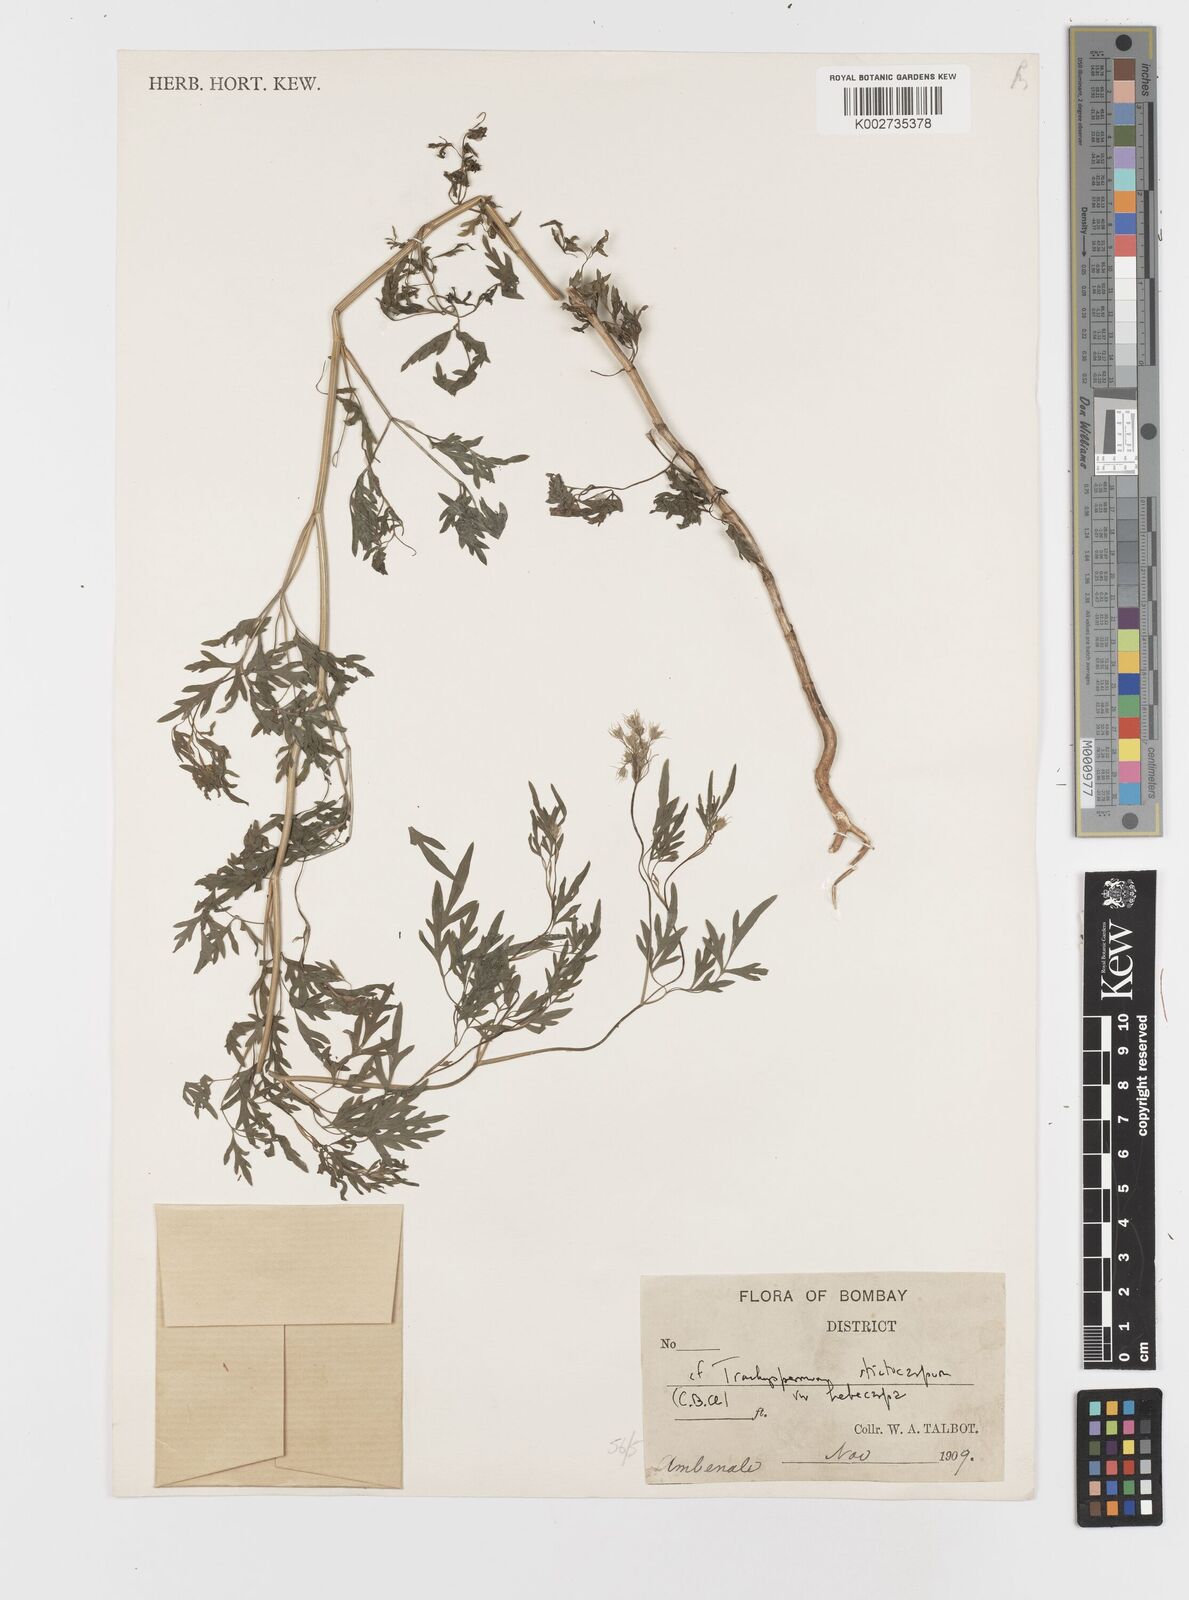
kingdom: Plantae
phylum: Tracheophyta
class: Magnoliopsida
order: Apiales
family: Apiaceae
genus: Psammogeton
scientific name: Psammogeton involucratum
